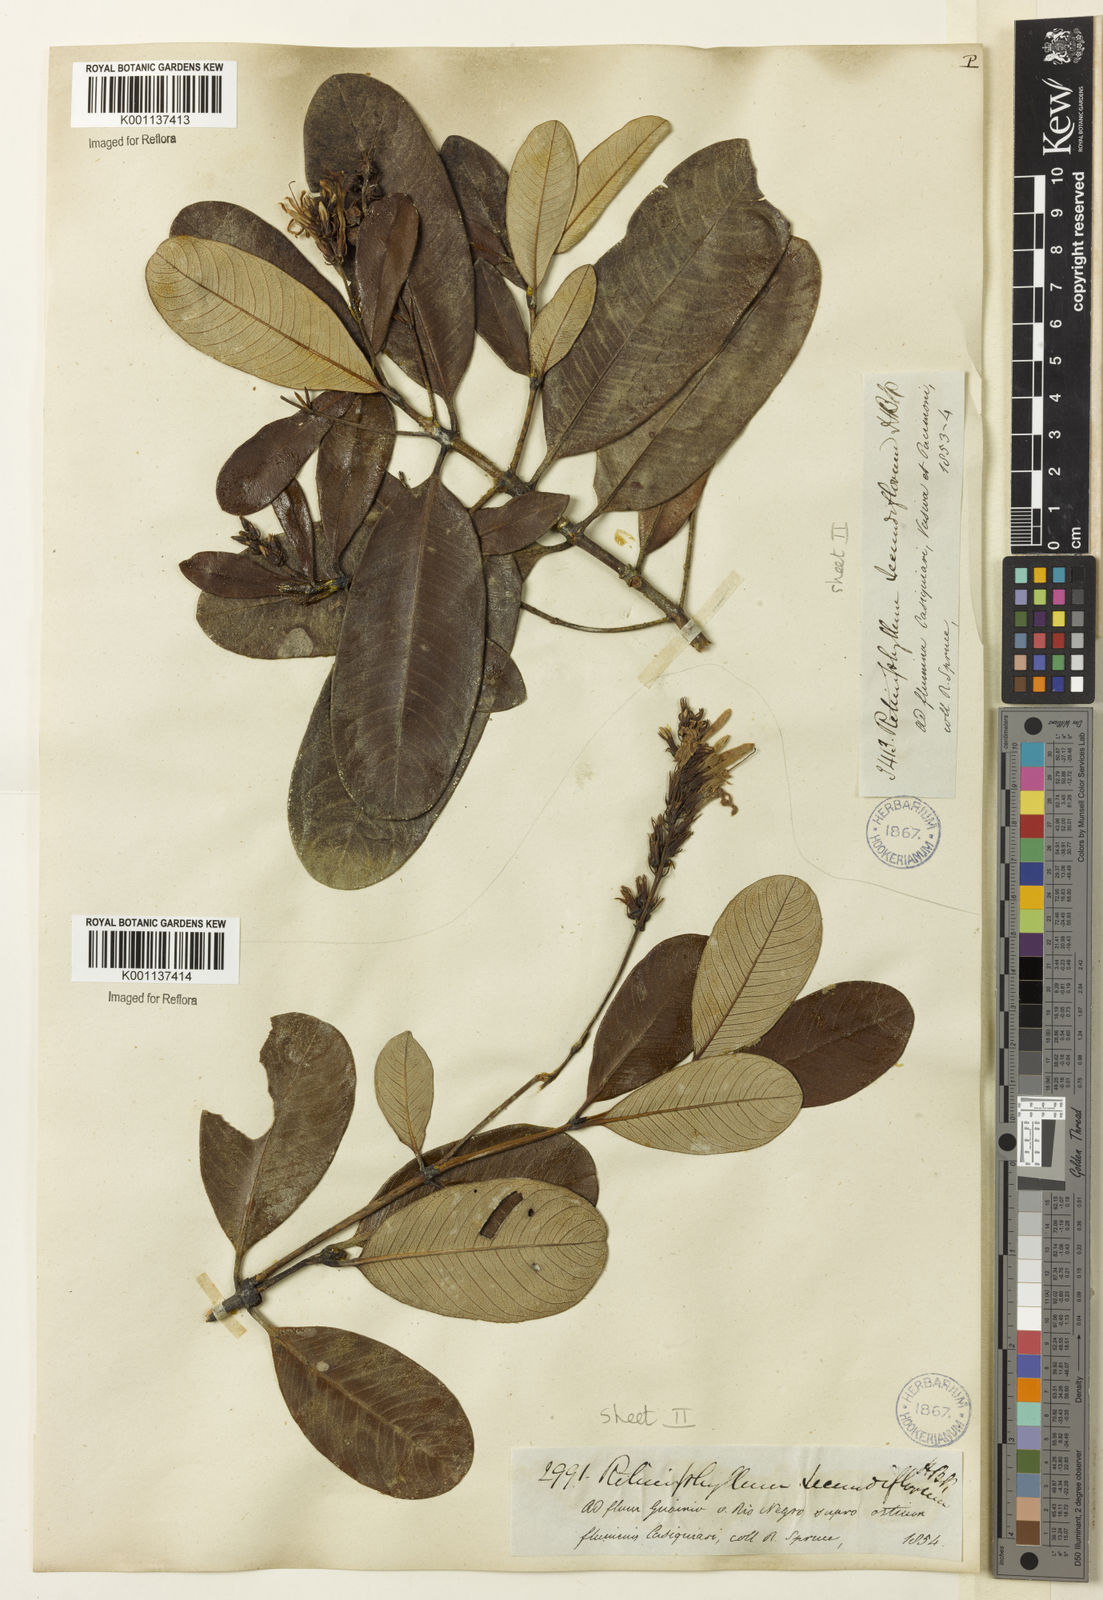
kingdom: Plantae
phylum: Tracheophyta
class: Magnoliopsida
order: Gentianales
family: Rubiaceae
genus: Retiniphyllum
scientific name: Retiniphyllum secundiflorum
